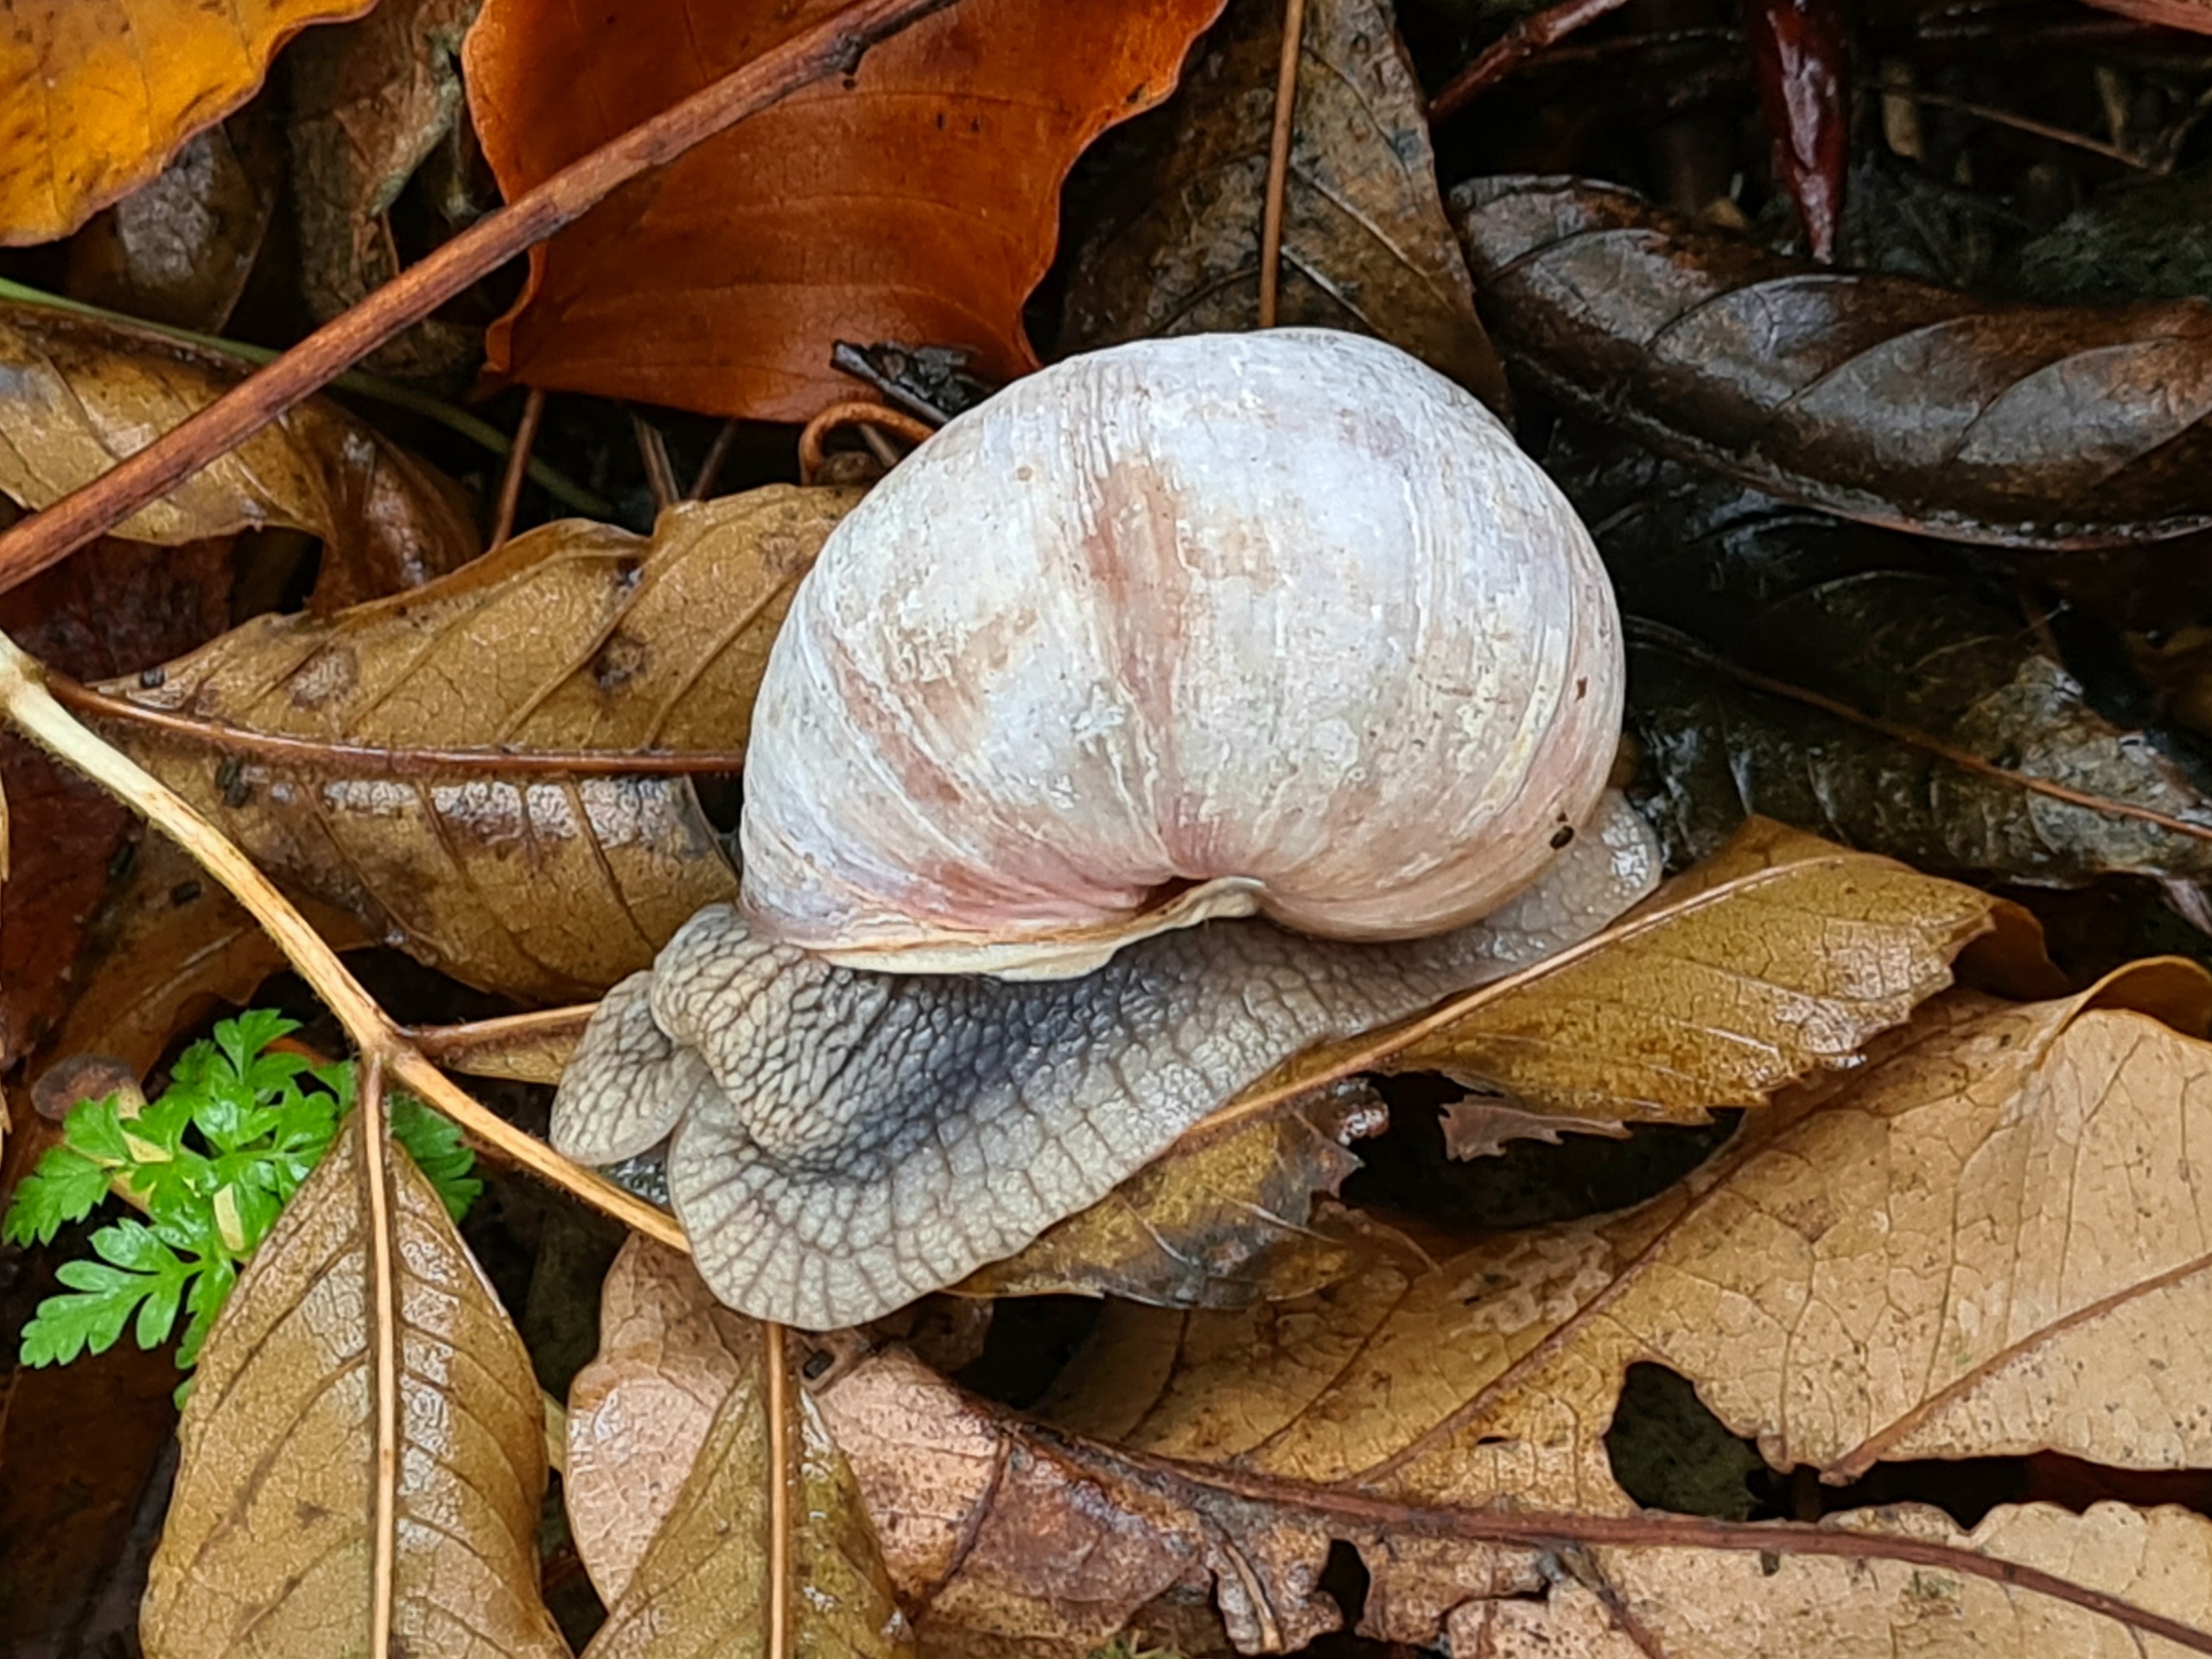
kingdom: Animalia
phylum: Mollusca
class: Gastropoda
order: Stylommatophora
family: Helicidae
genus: Helix
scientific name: Helix pomatia
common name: Vinbjergsnegl
